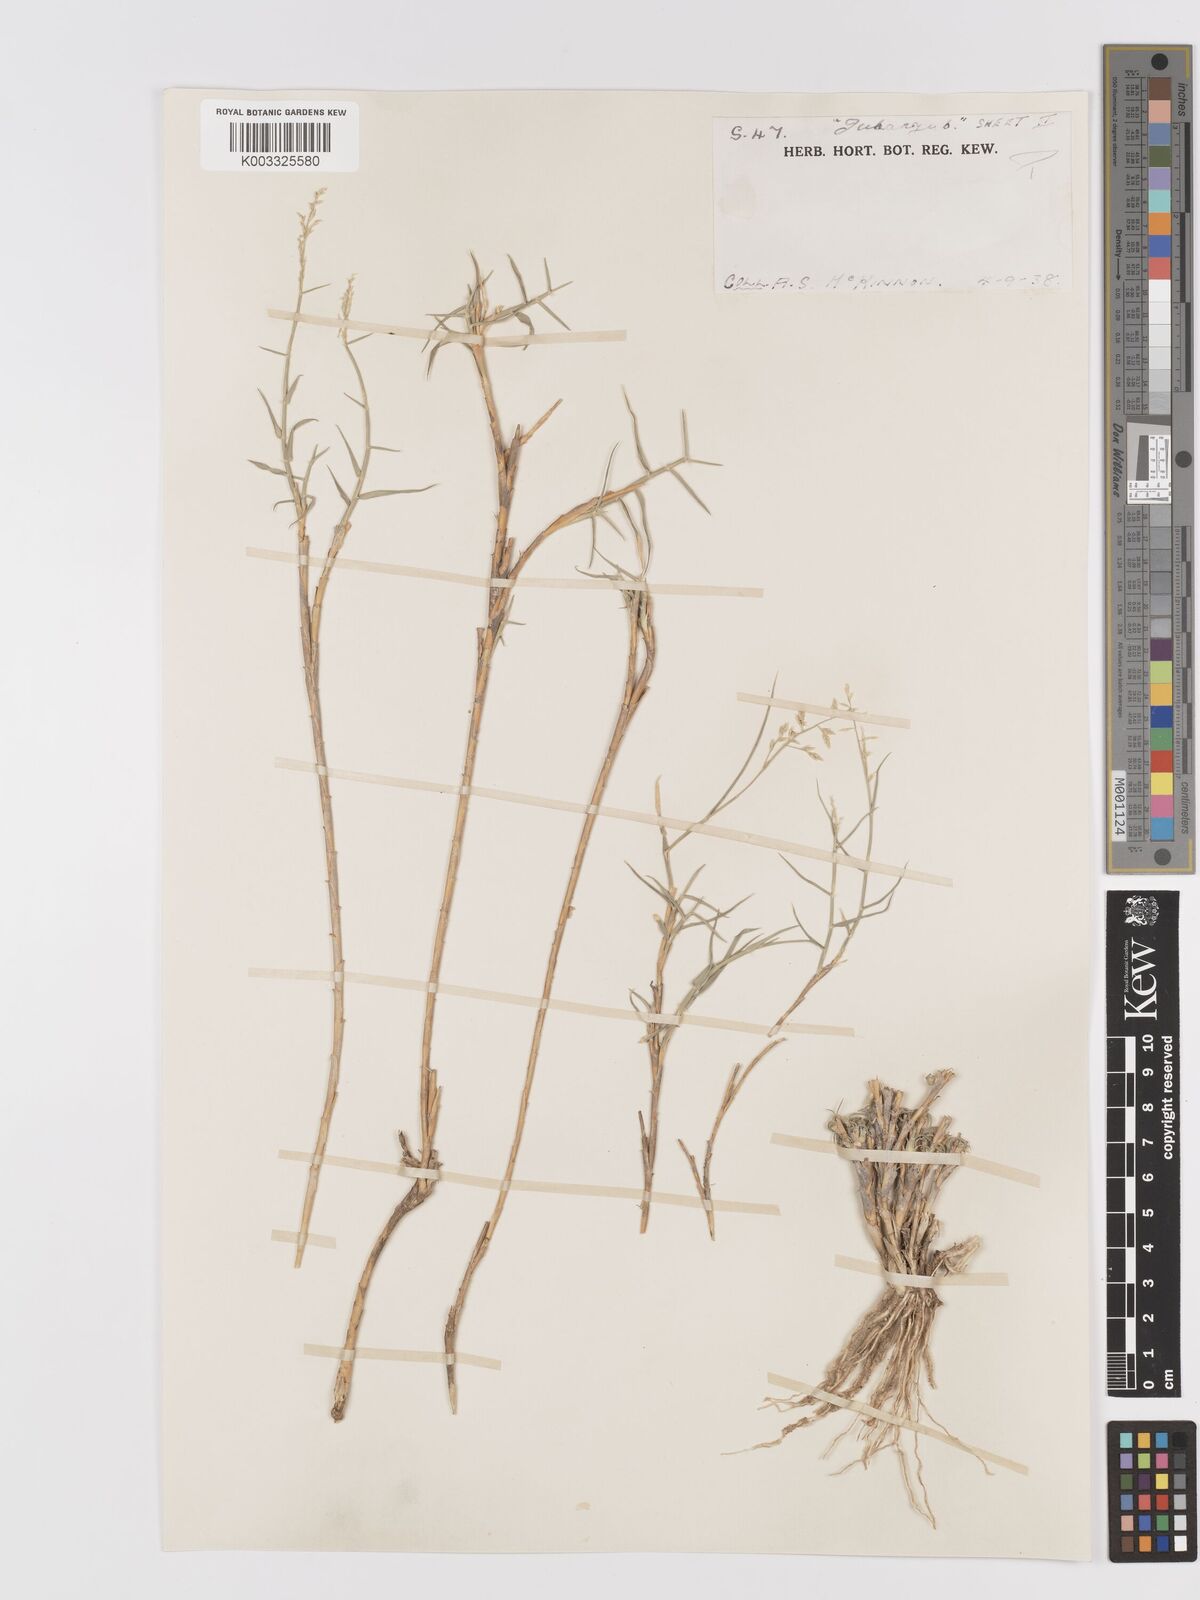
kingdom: Plantae
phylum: Tracheophyta
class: Liliopsida
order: Poales
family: Poaceae
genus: Eragrostis
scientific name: Eragrostis mahrana
